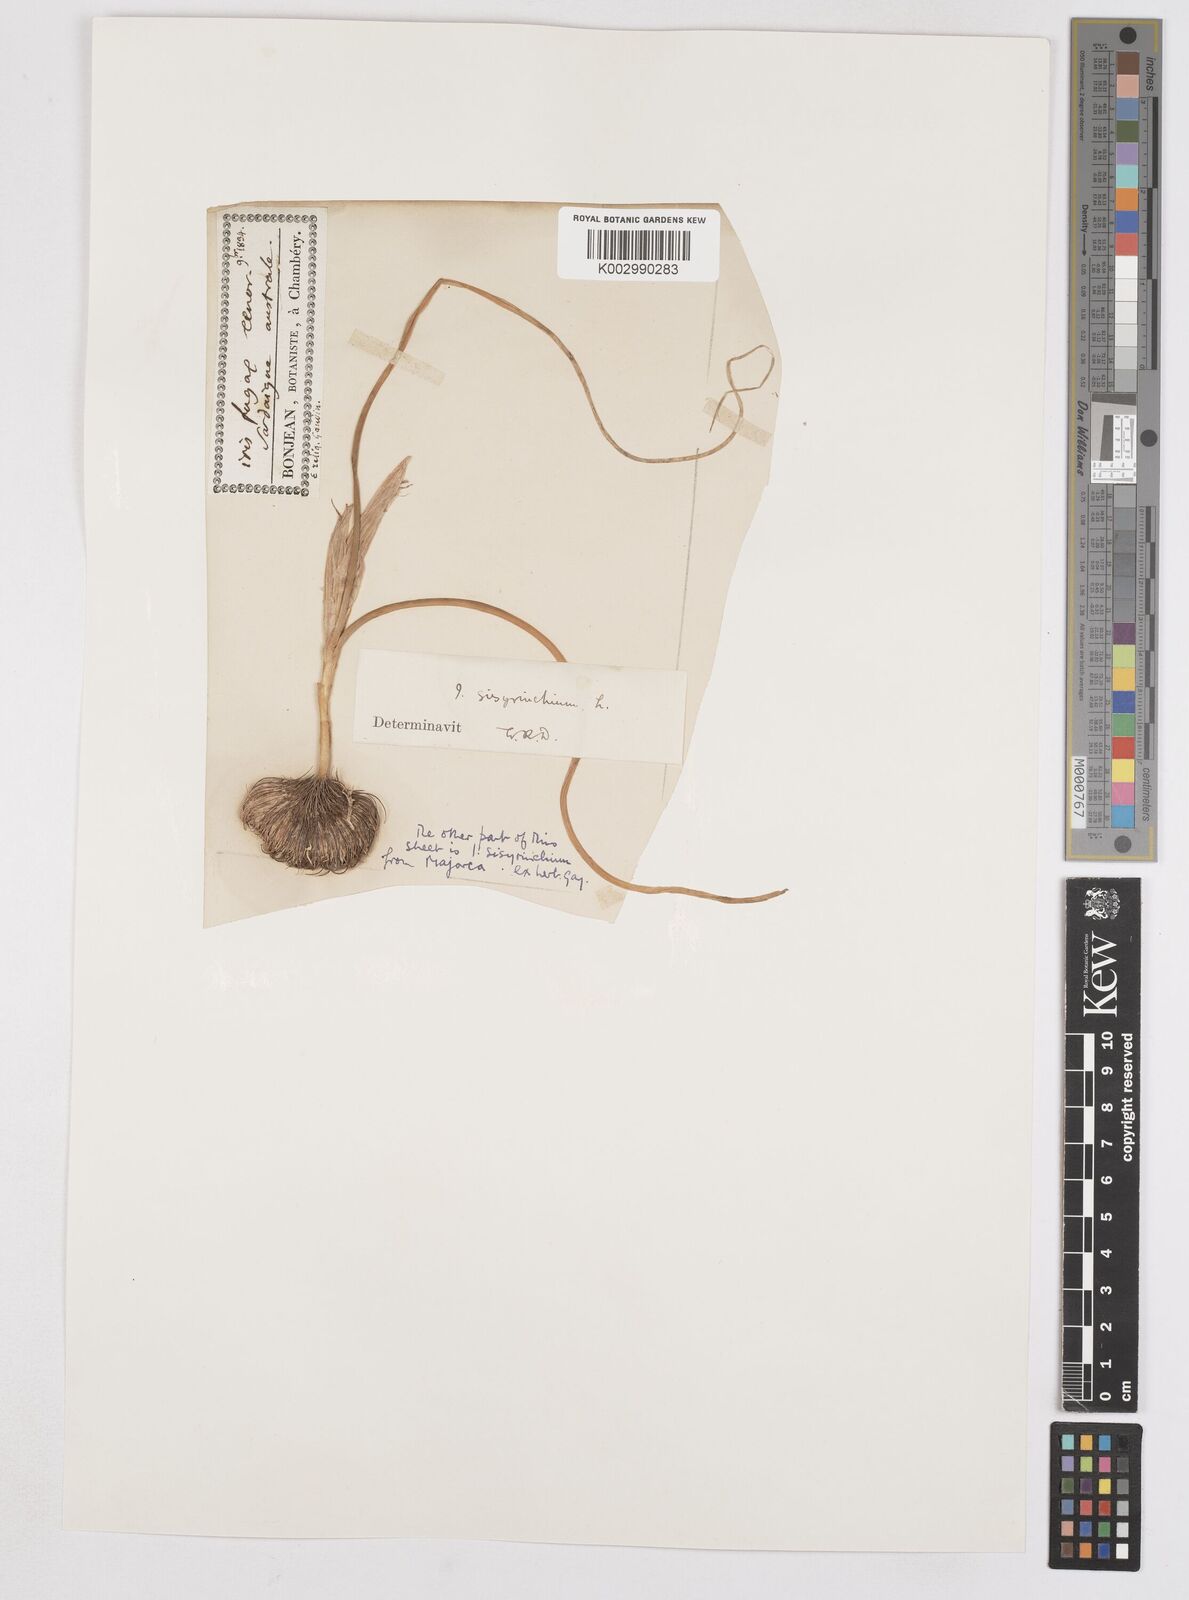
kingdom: Plantae
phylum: Tracheophyta
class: Liliopsida
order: Asparagales
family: Iridaceae
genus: Moraea
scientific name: Moraea sisyrinchium
